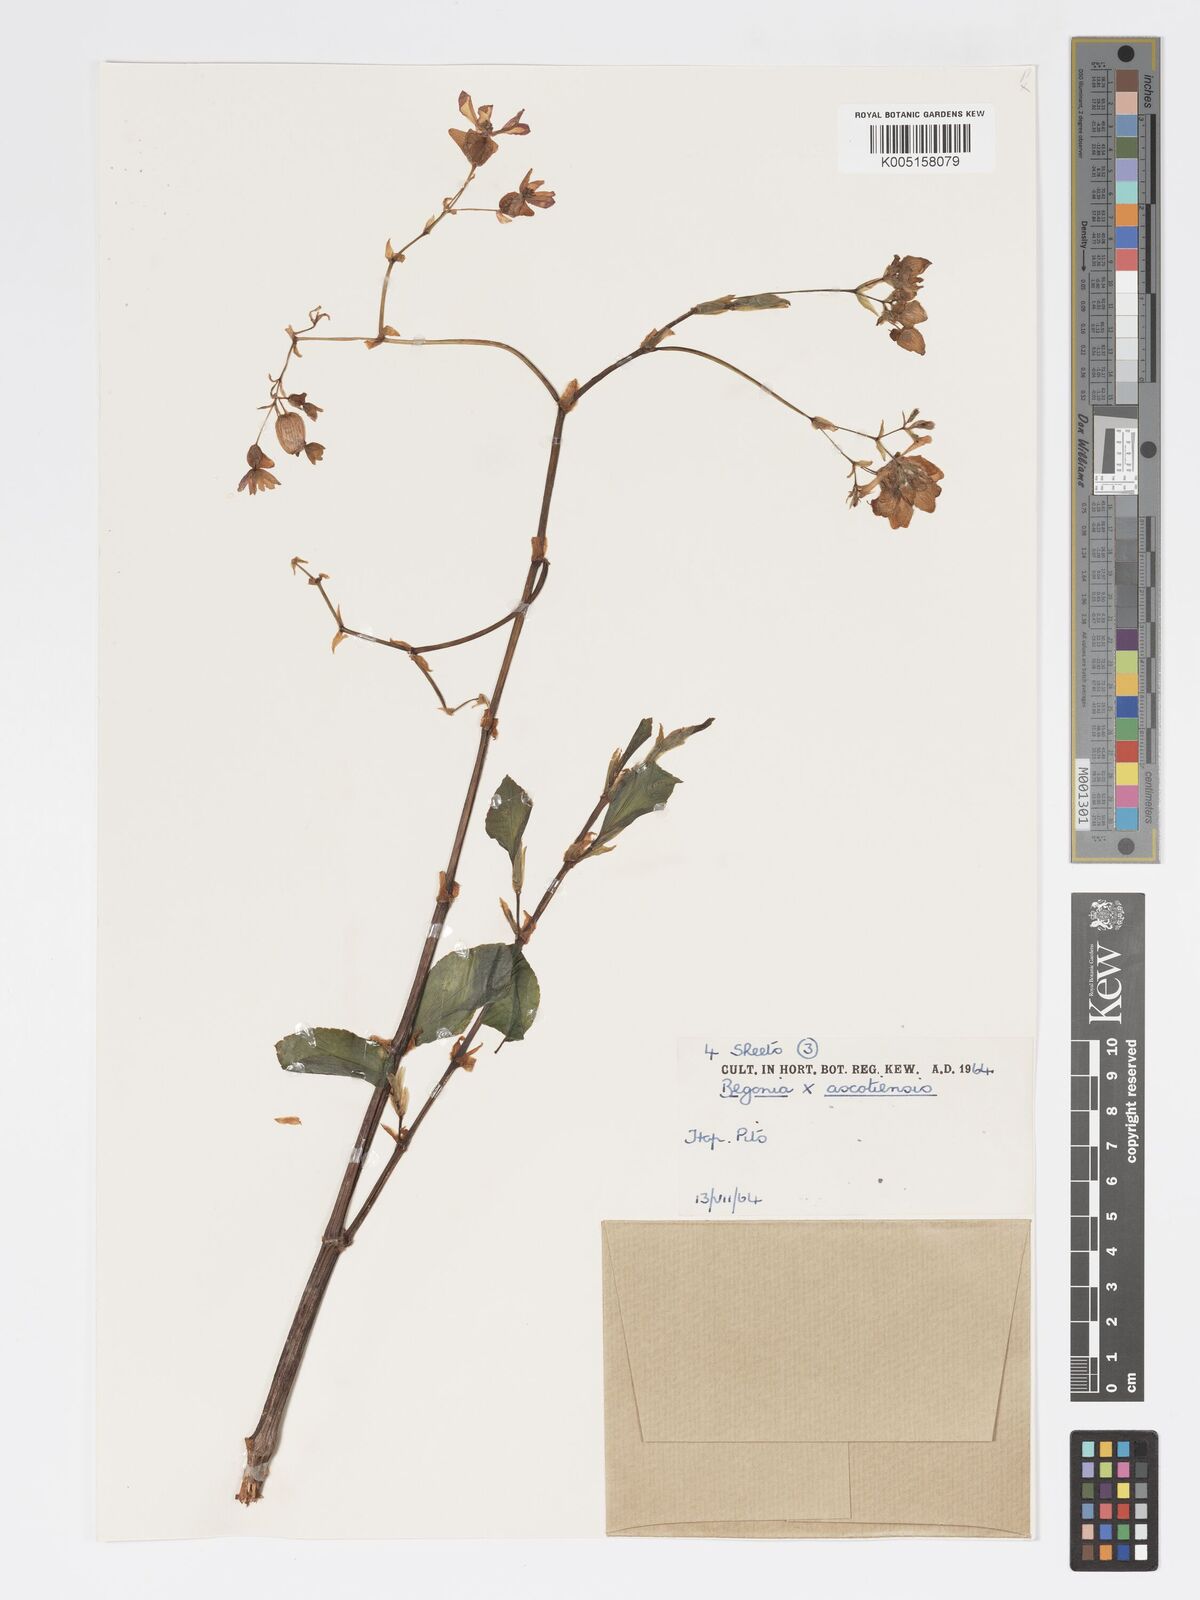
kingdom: Plantae
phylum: Tracheophyta
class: Magnoliopsida
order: Cucurbitales
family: Begoniaceae
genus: Begonia
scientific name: Begonia ascotiensis
